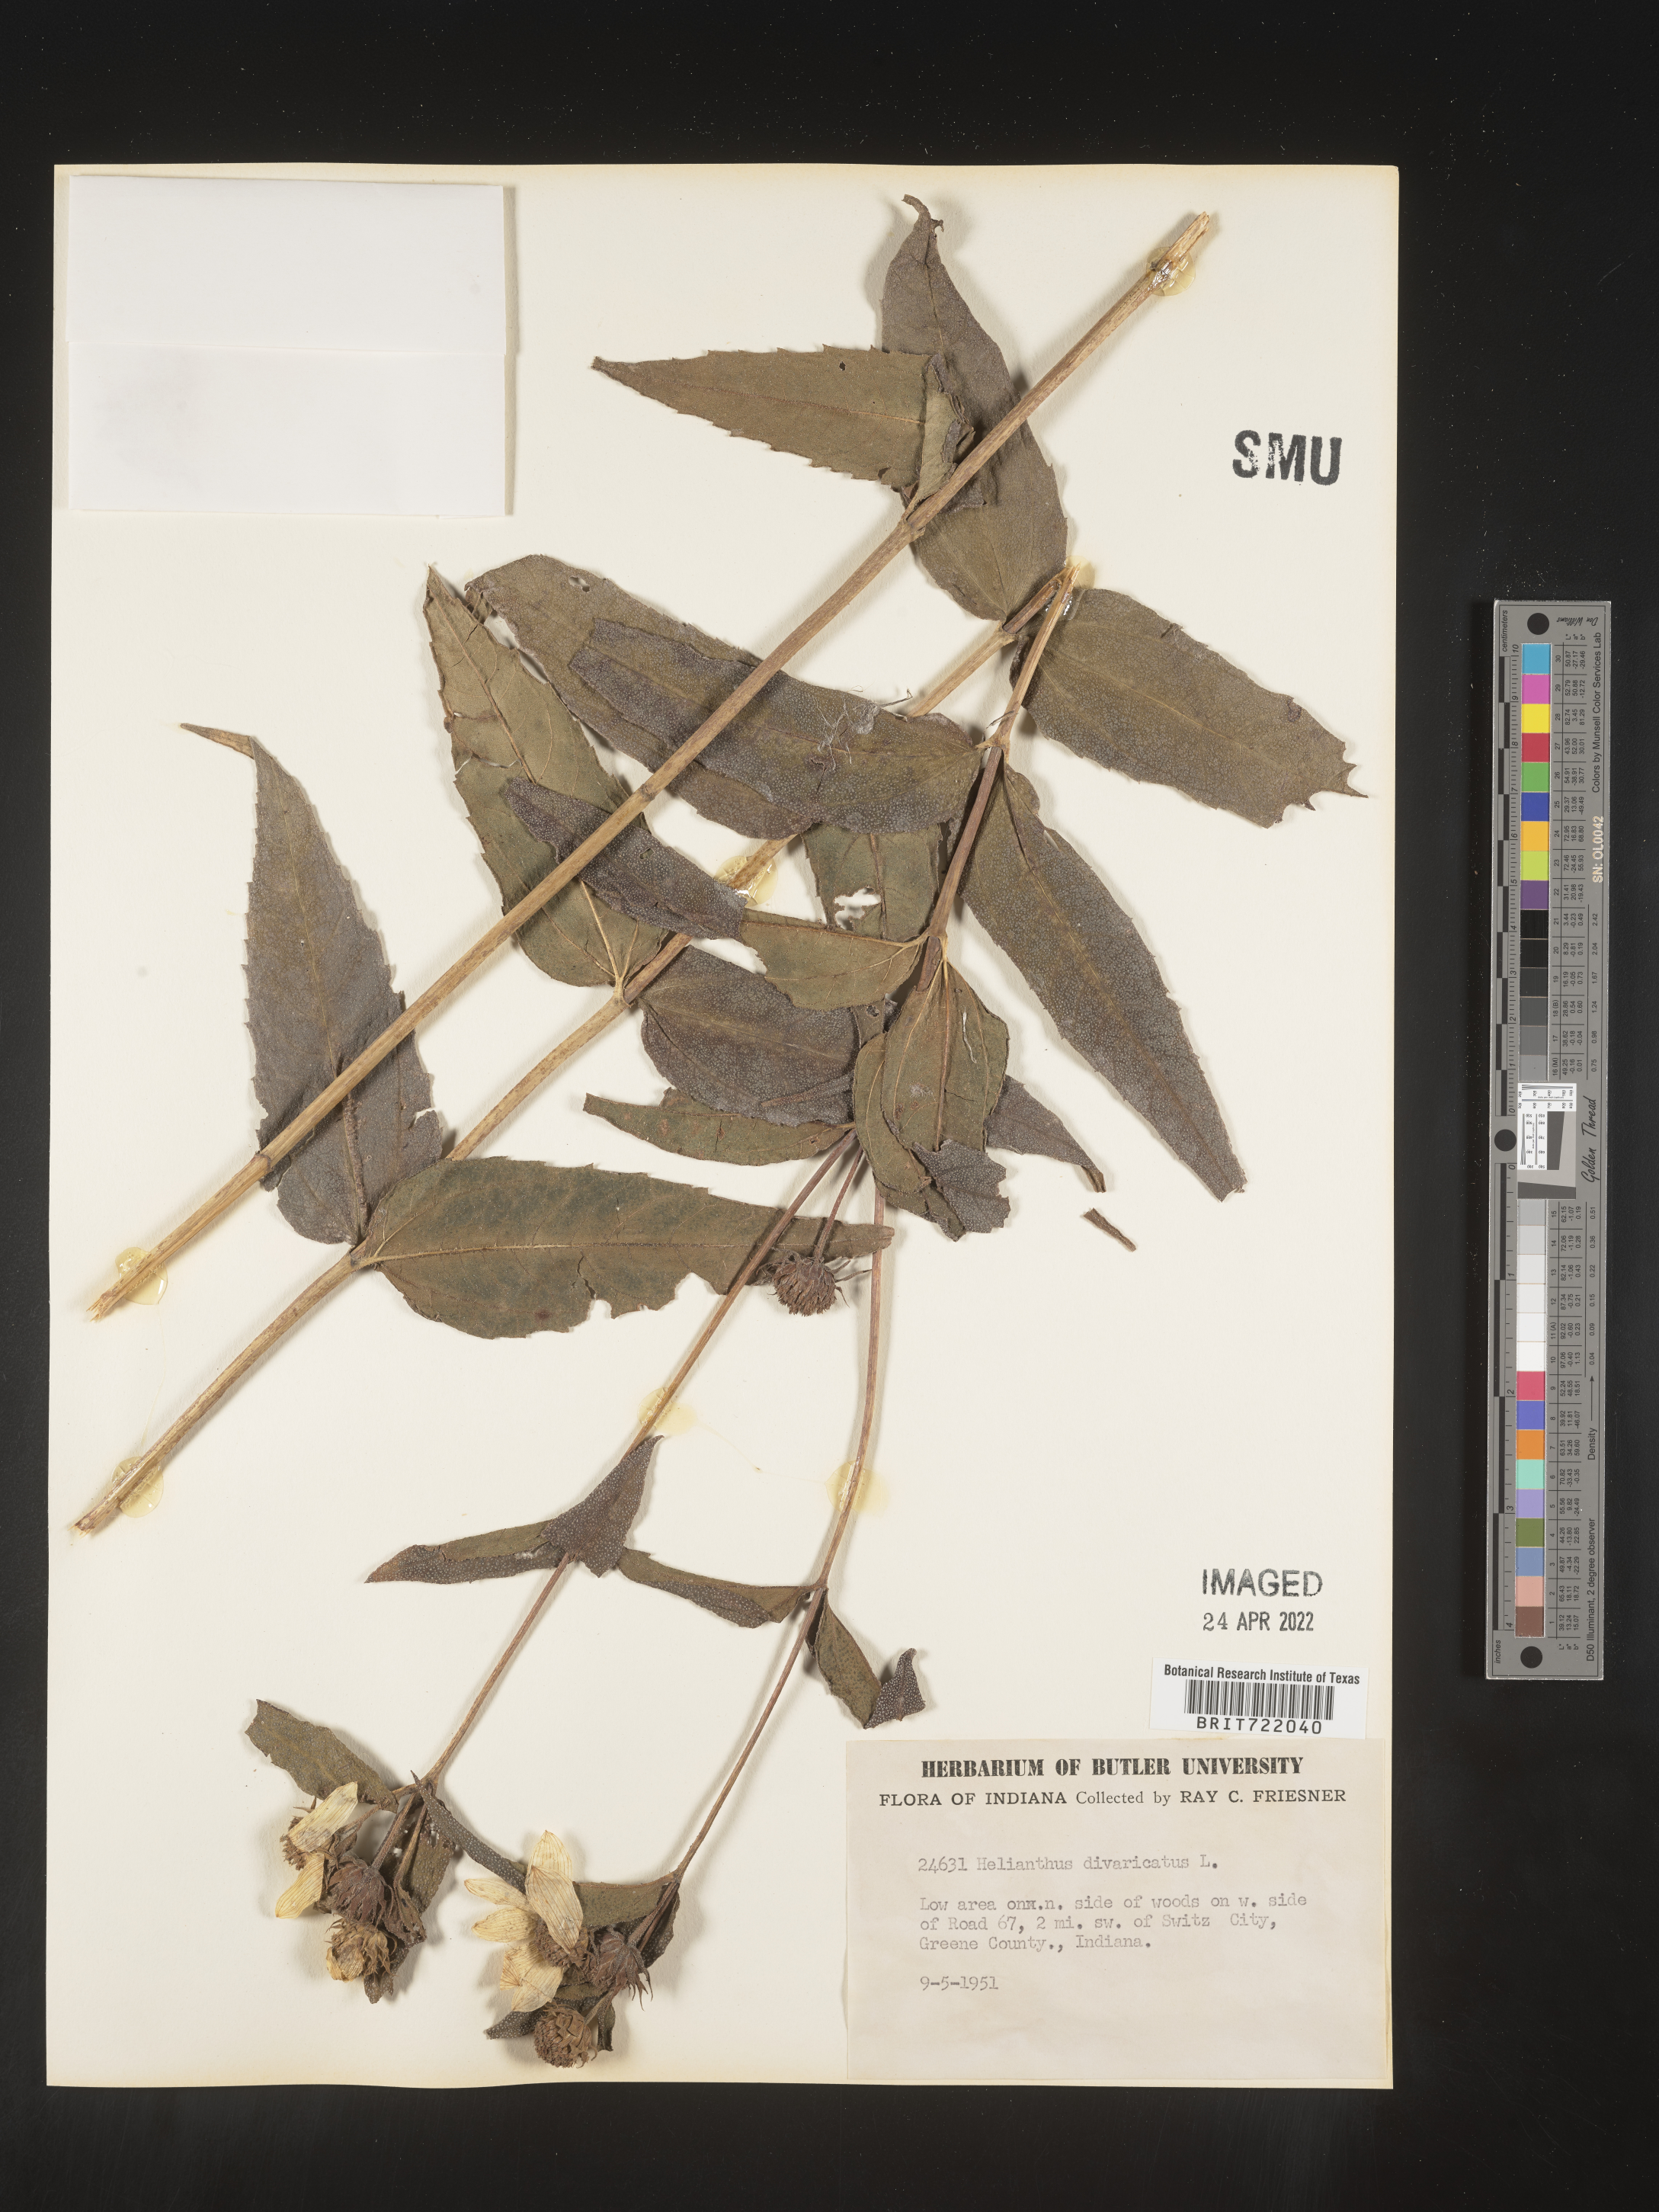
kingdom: Plantae
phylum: Tracheophyta
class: Magnoliopsida
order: Asterales
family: Asteraceae
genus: Helianthus
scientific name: Helianthus divaricatus
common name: Divergent sunflower
